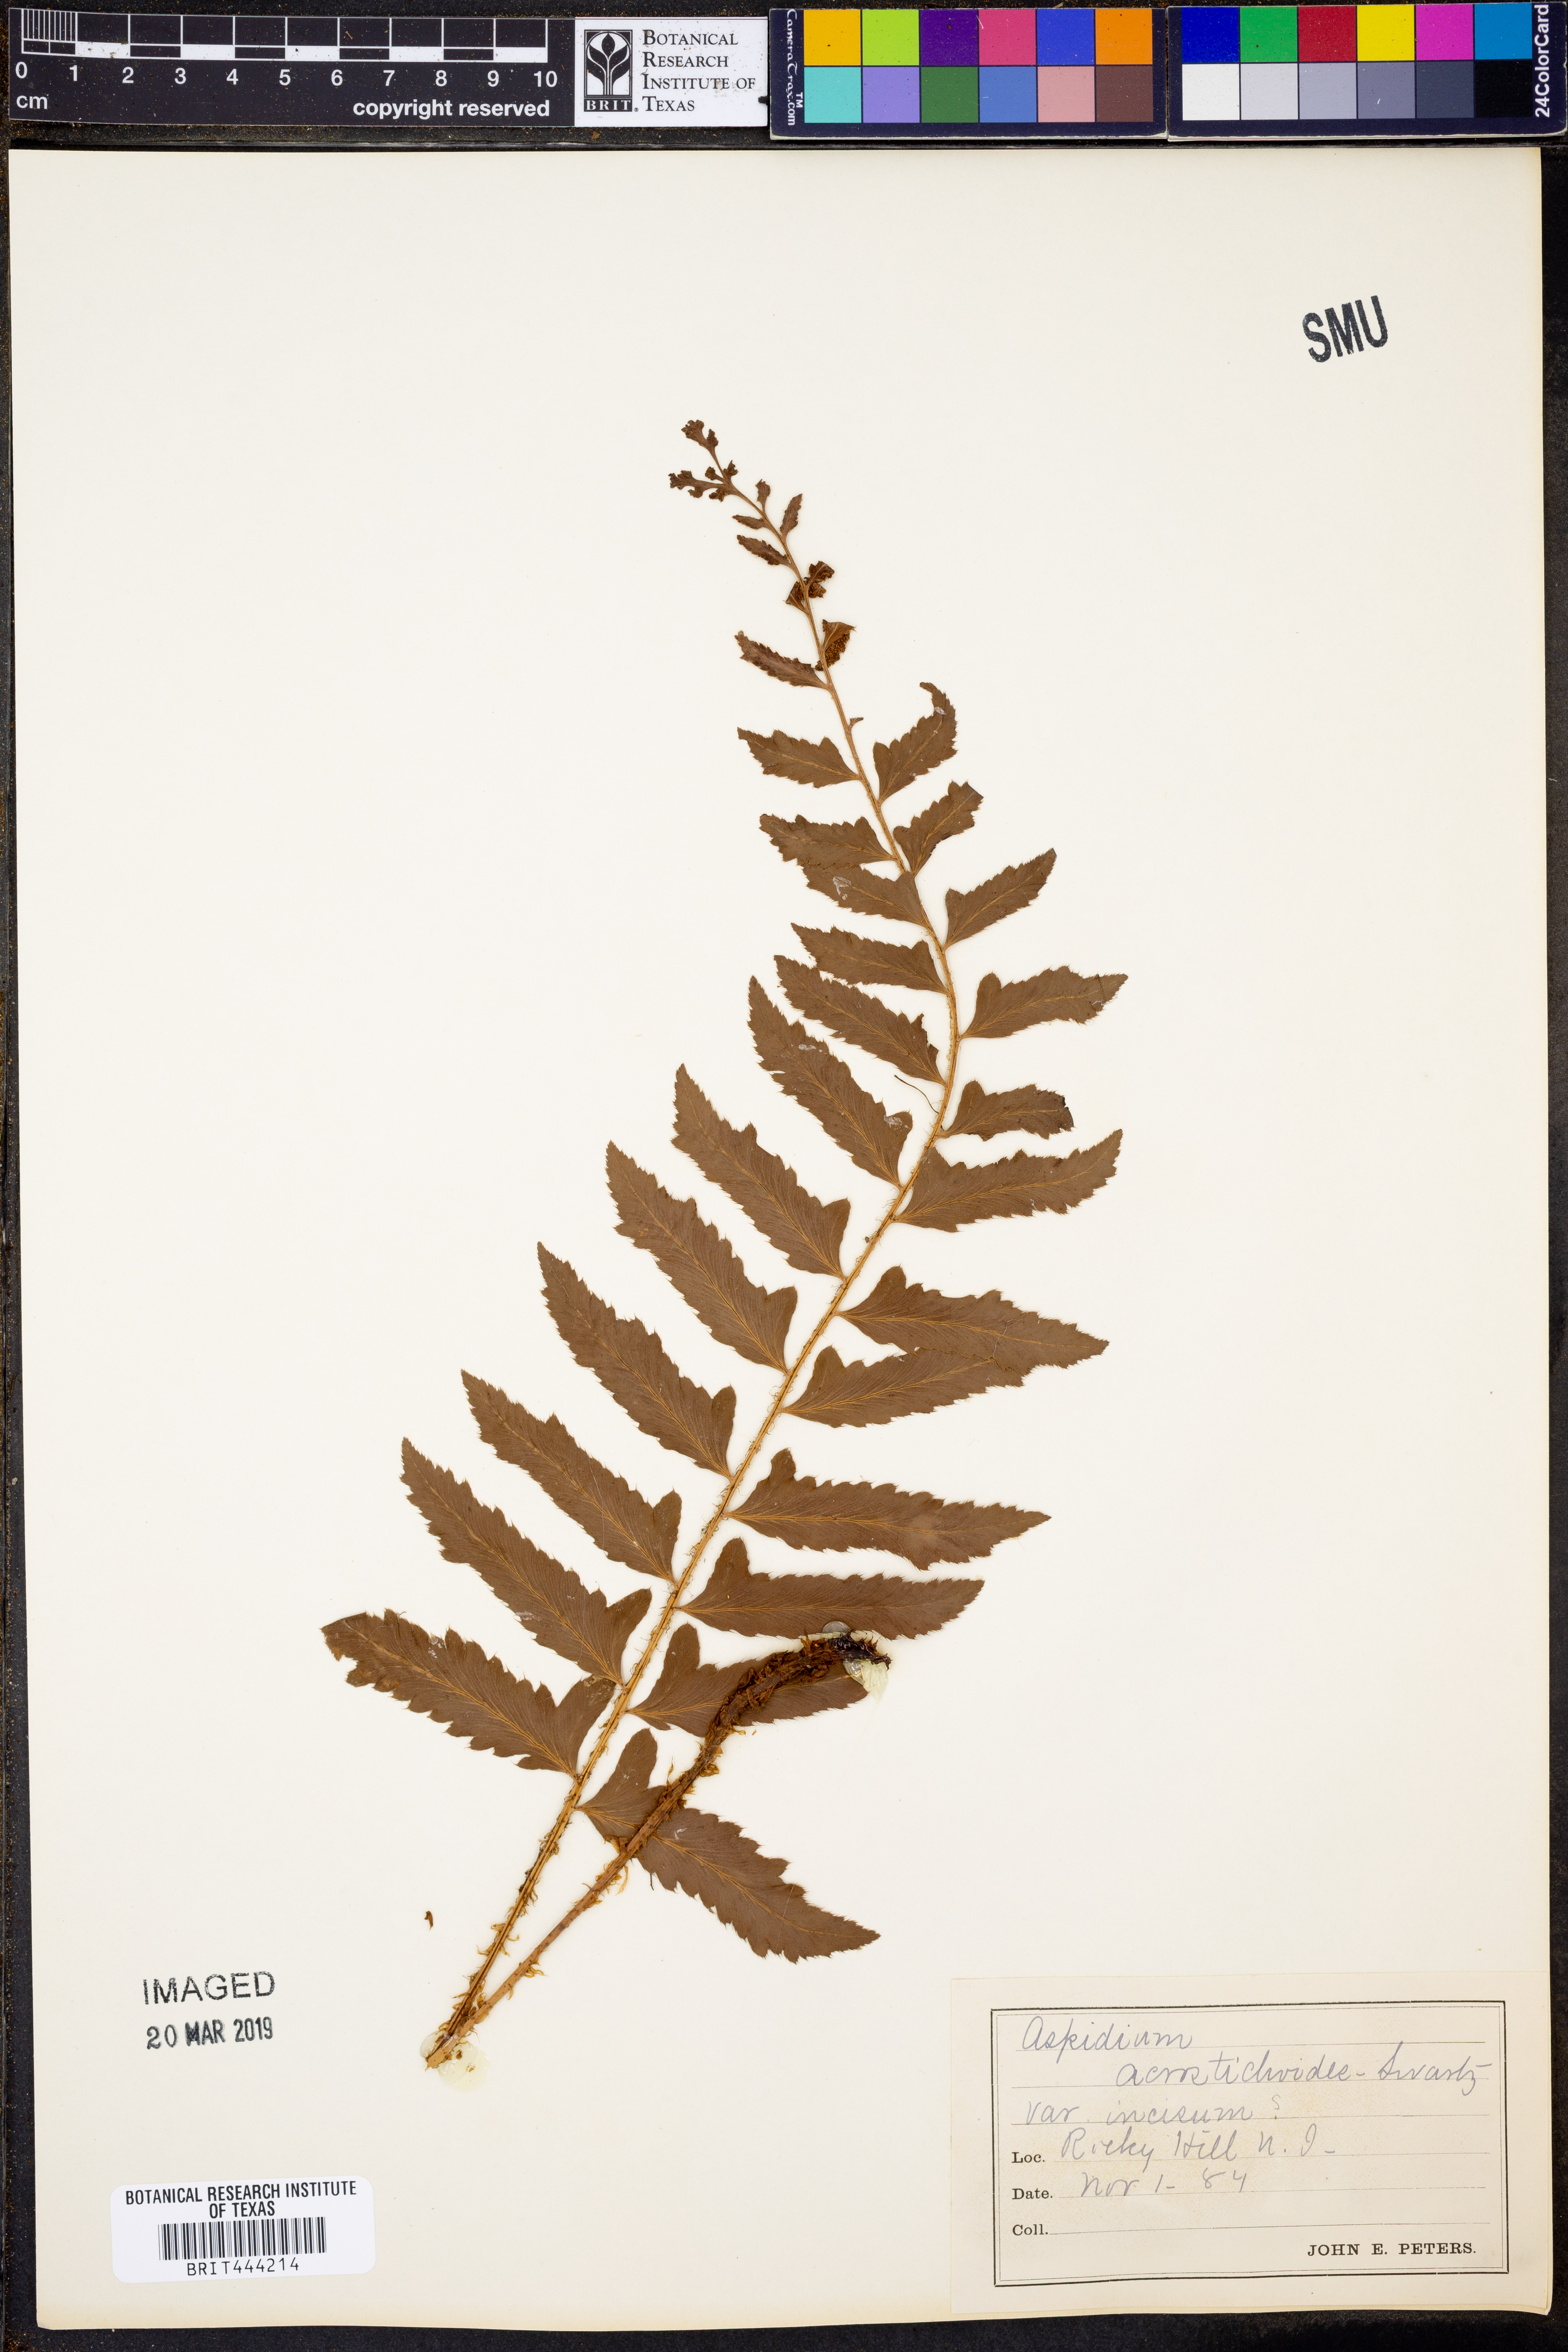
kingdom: Plantae
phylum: Tracheophyta
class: Polypodiopsida
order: Polypodiales
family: Dryopteridaceae
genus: Polystichum
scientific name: Polystichum acrostichoides
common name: Christmas fern
